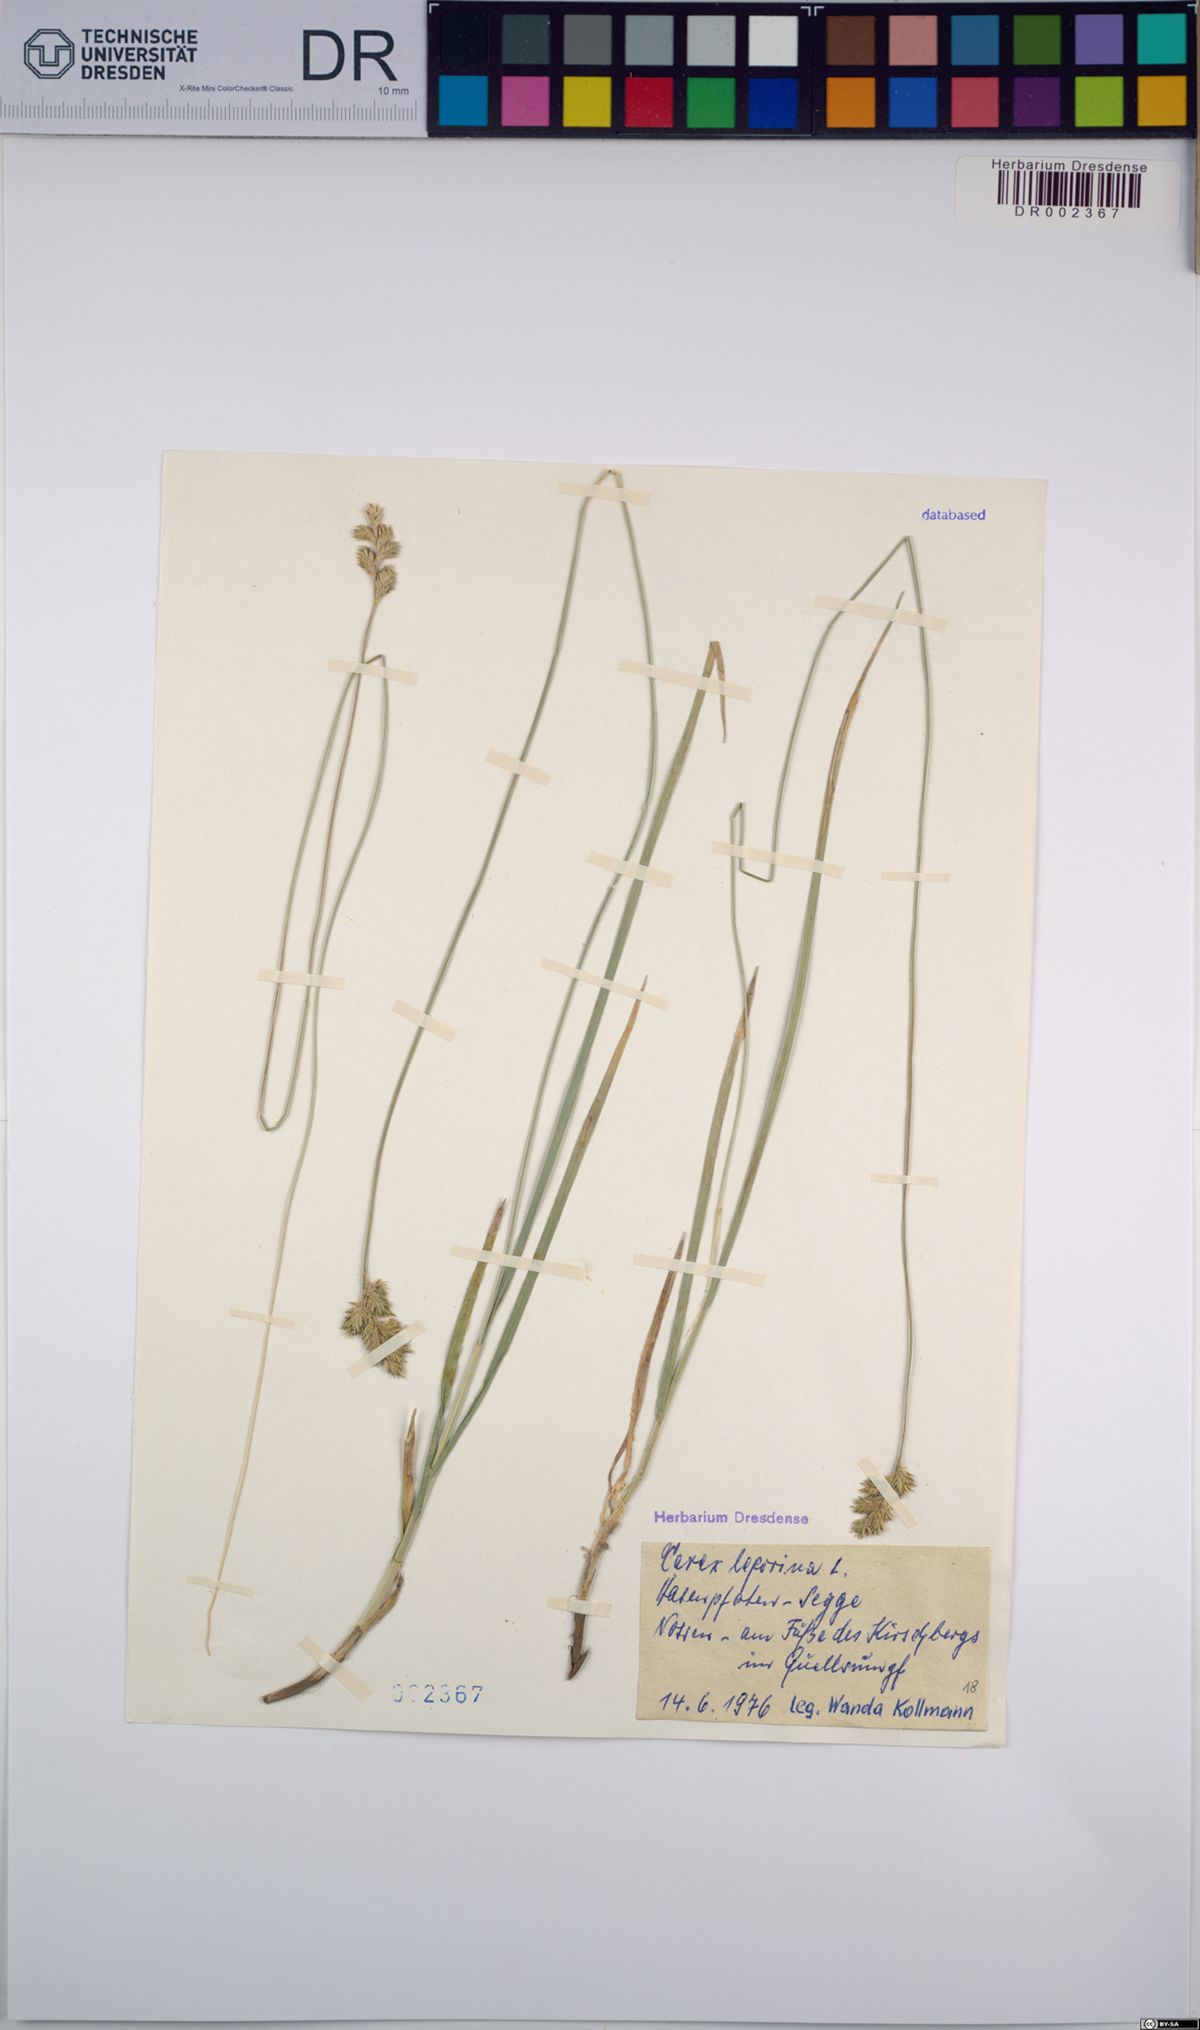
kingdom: Plantae
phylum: Tracheophyta
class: Liliopsida
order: Poales
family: Cyperaceae
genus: Carex
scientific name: Carex leporina
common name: Oval sedge
